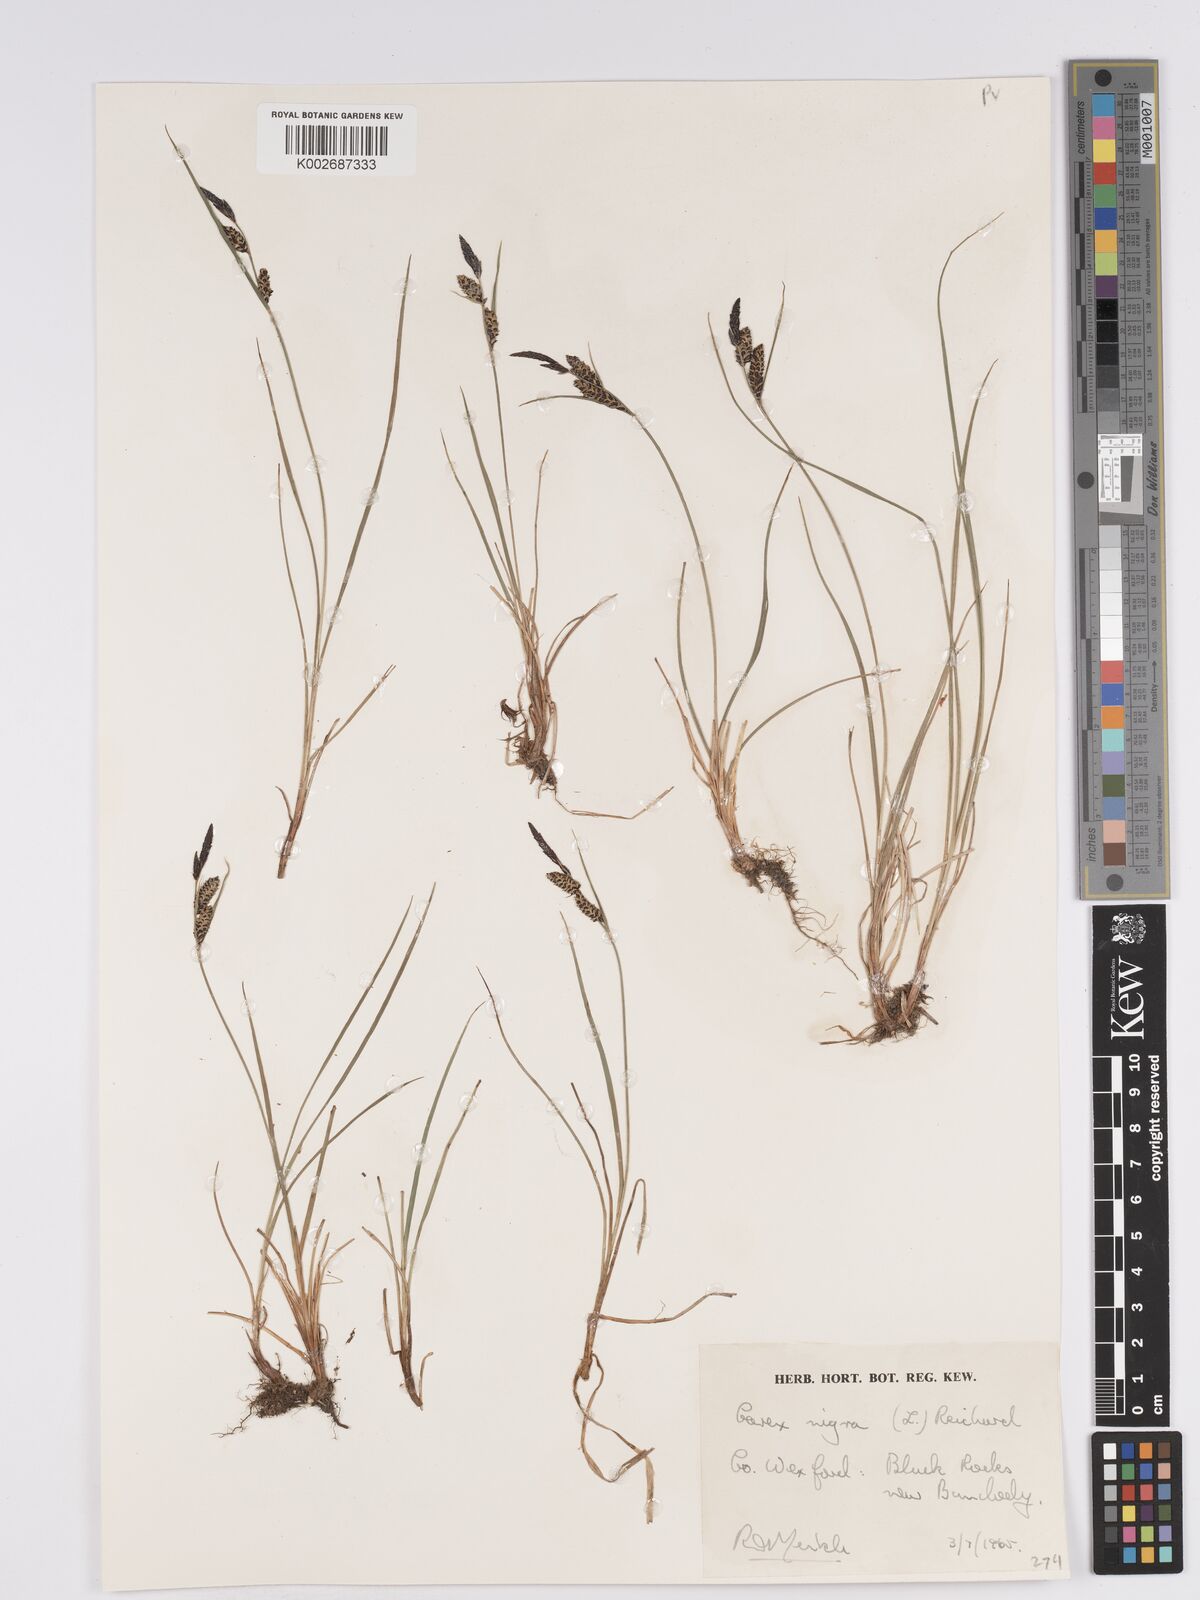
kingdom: Plantae
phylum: Tracheophyta
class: Liliopsida
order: Poales
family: Cyperaceae
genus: Carex
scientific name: Carex nigra
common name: Common sedge
